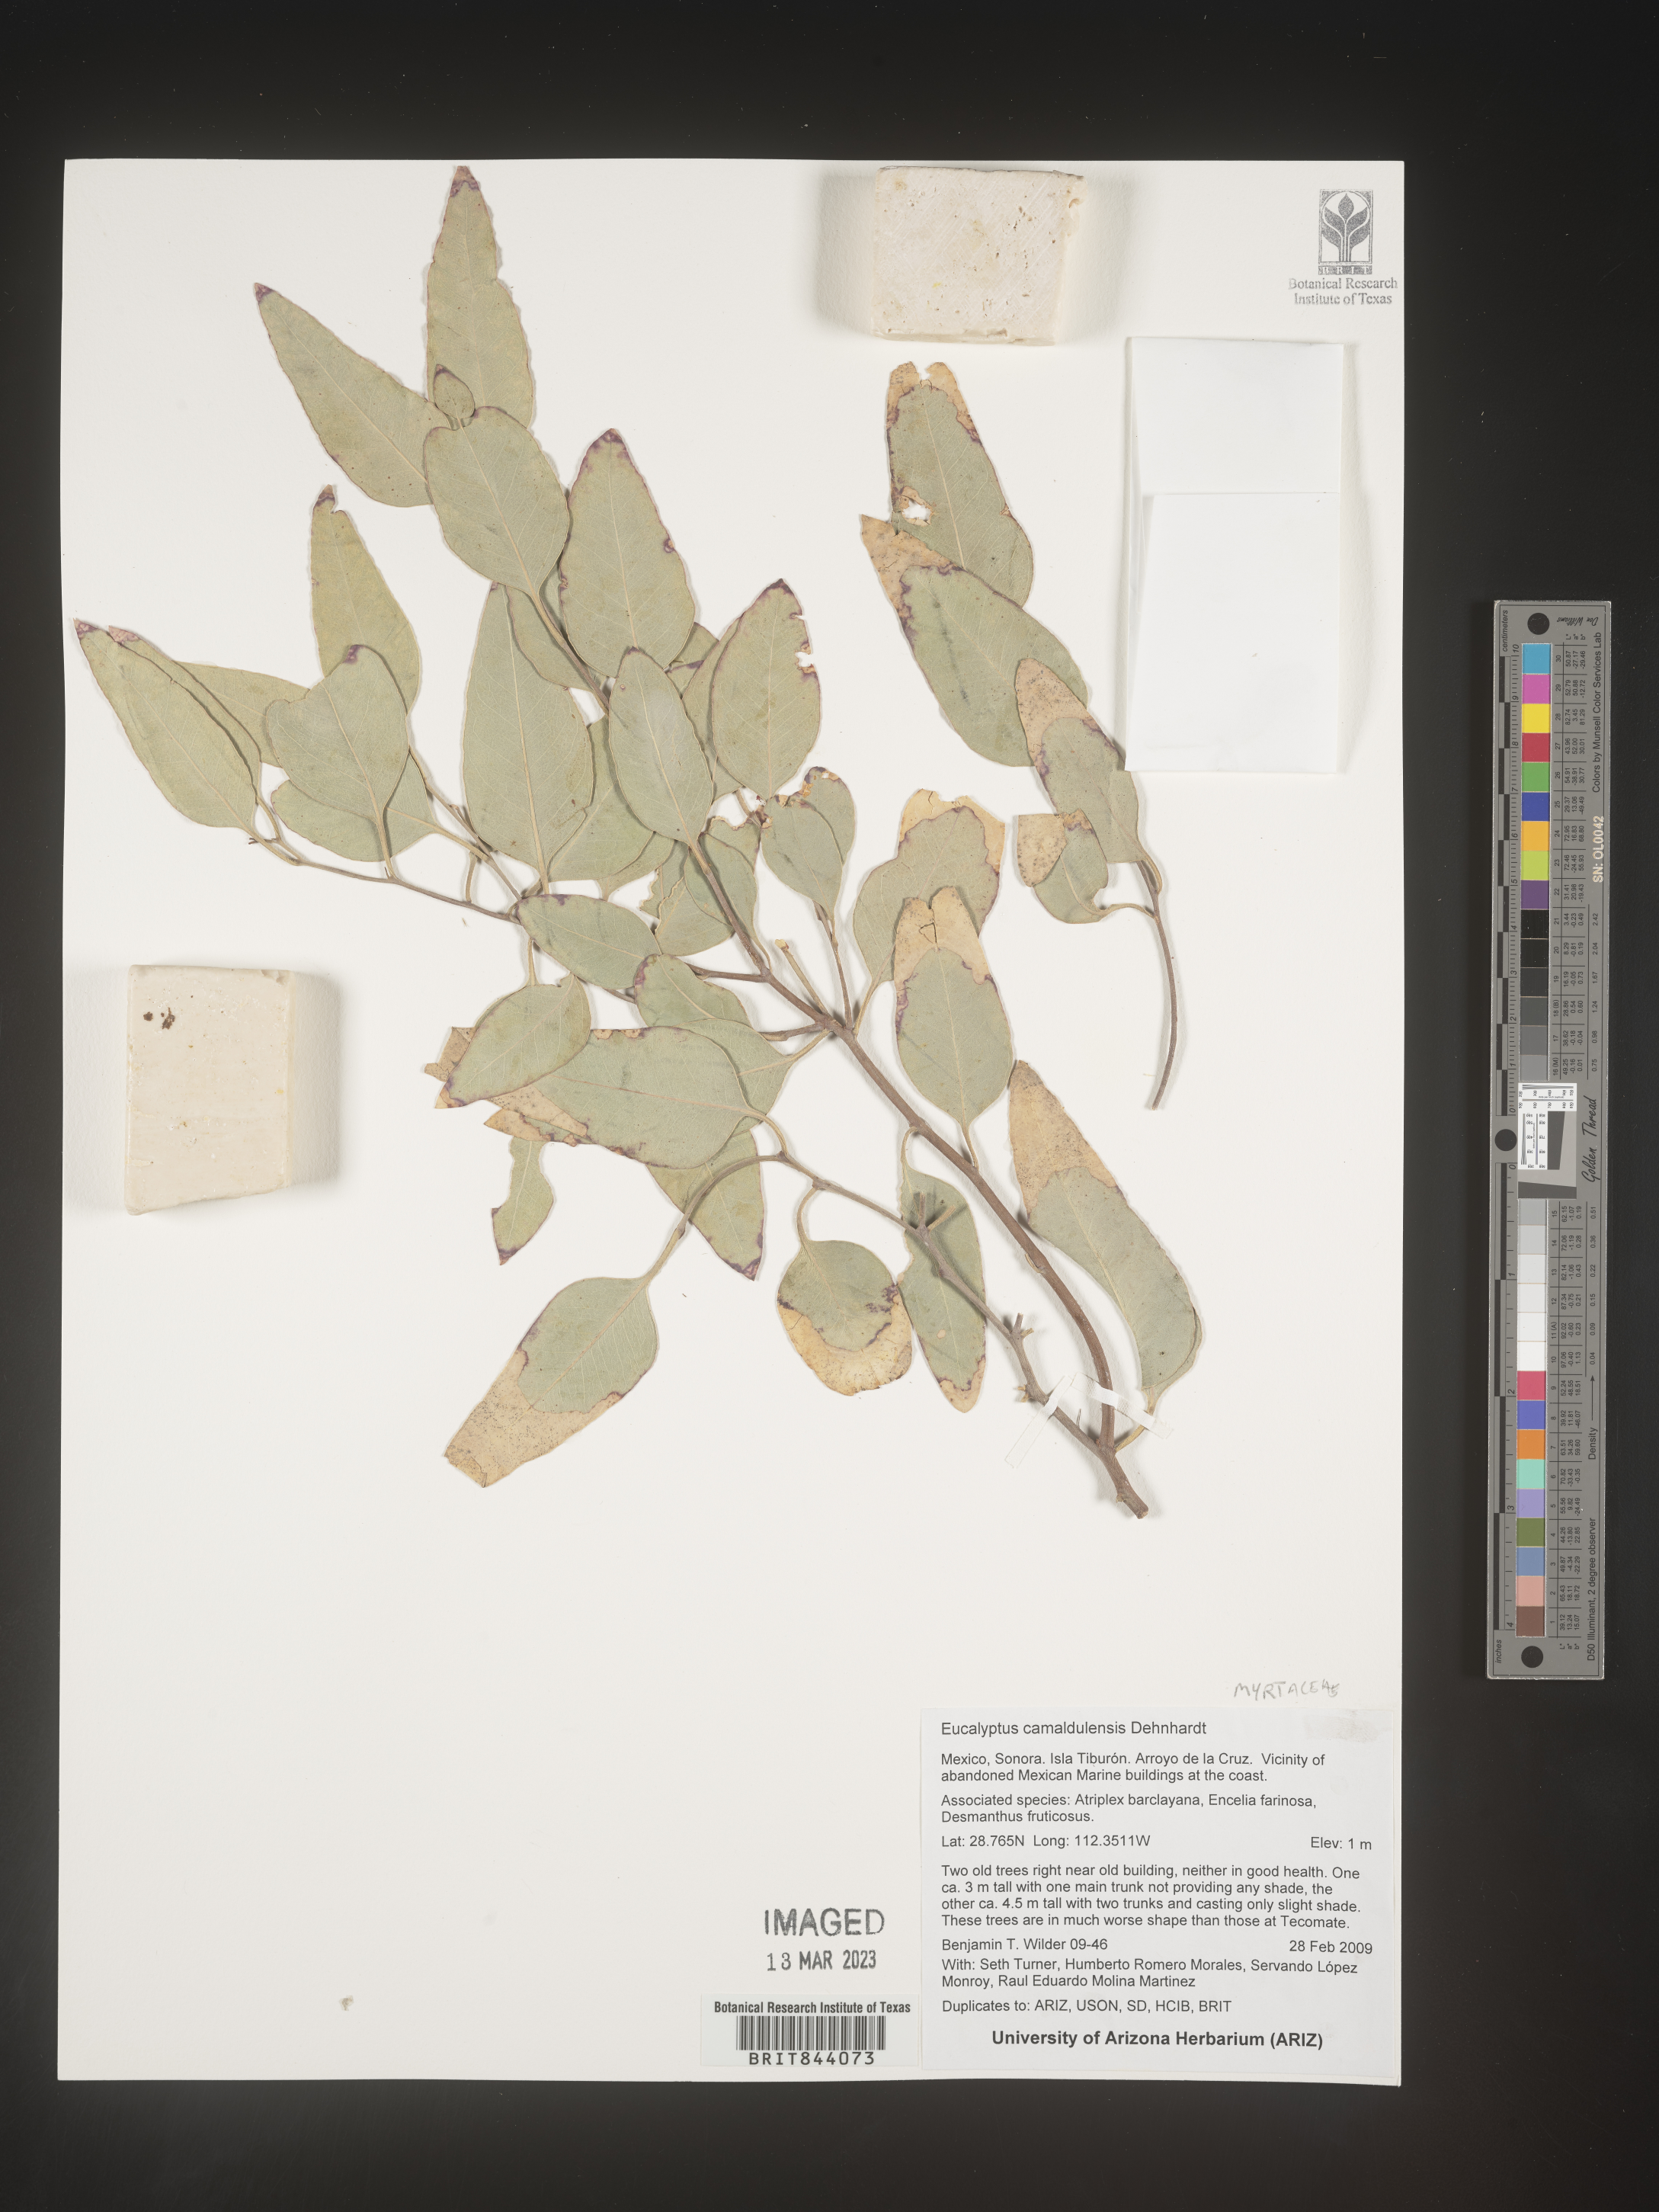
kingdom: Plantae
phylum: Tracheophyta
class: Magnoliopsida
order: Myrtales
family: Myrtaceae
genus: Eucalyptus
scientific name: Eucalyptus camaldulensis
